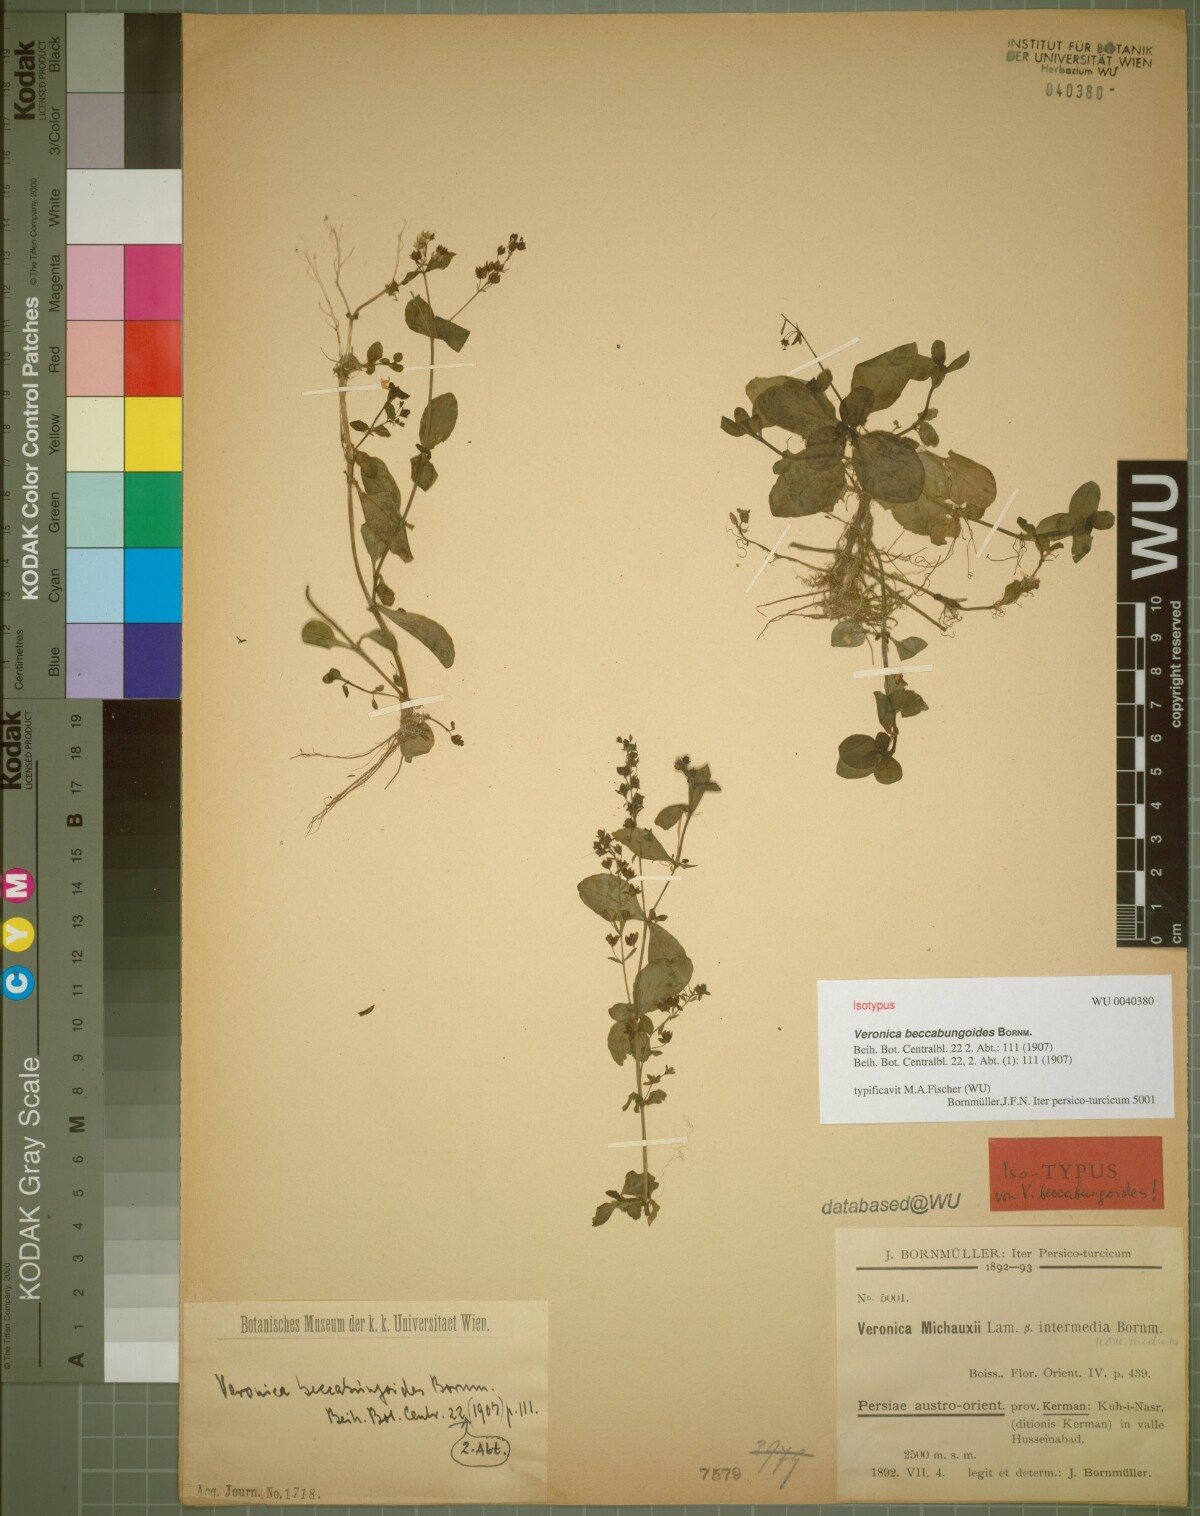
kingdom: Plantae
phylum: Tracheophyta
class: Magnoliopsida
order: Lamiales
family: Plantaginaceae
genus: Veronica
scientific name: Veronica oxycarpa
